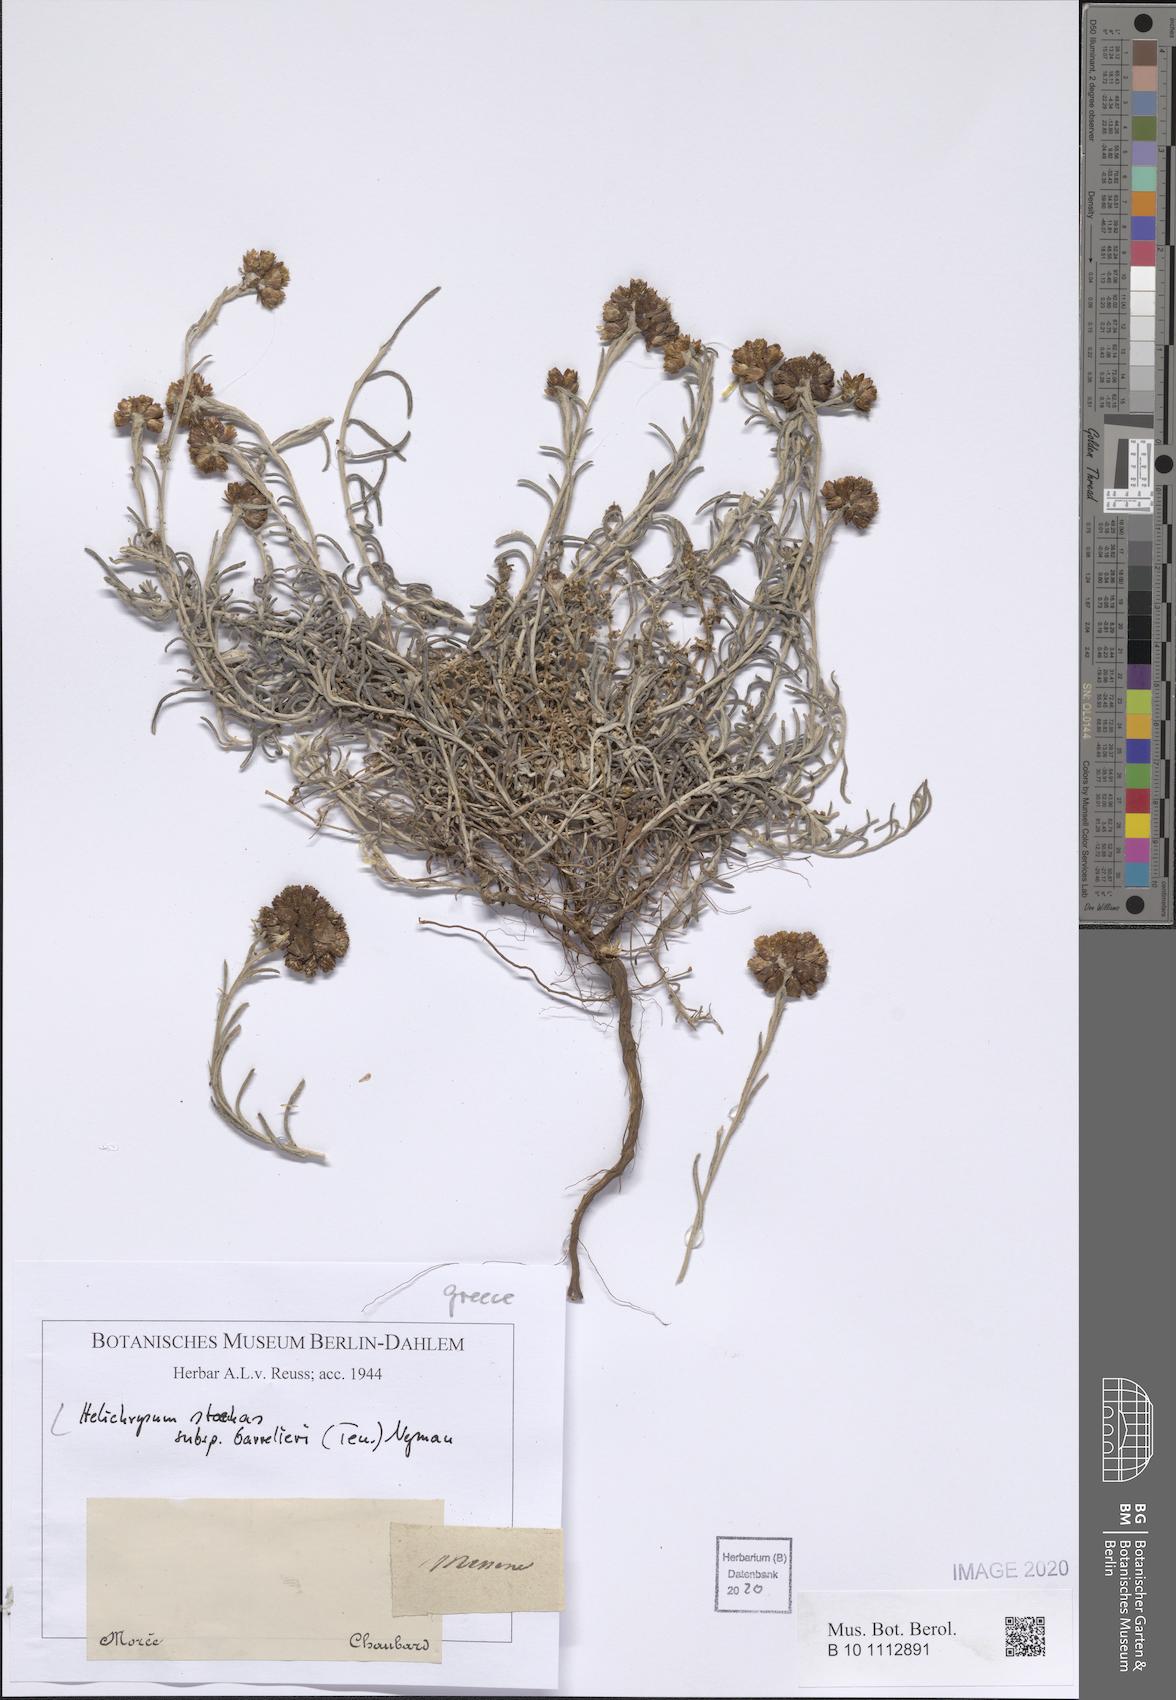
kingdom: Plantae
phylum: Tracheophyta
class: Magnoliopsida
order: Asterales
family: Asteraceae
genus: Helichrysum
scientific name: Helichrysum stoechas
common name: Goldilocks
